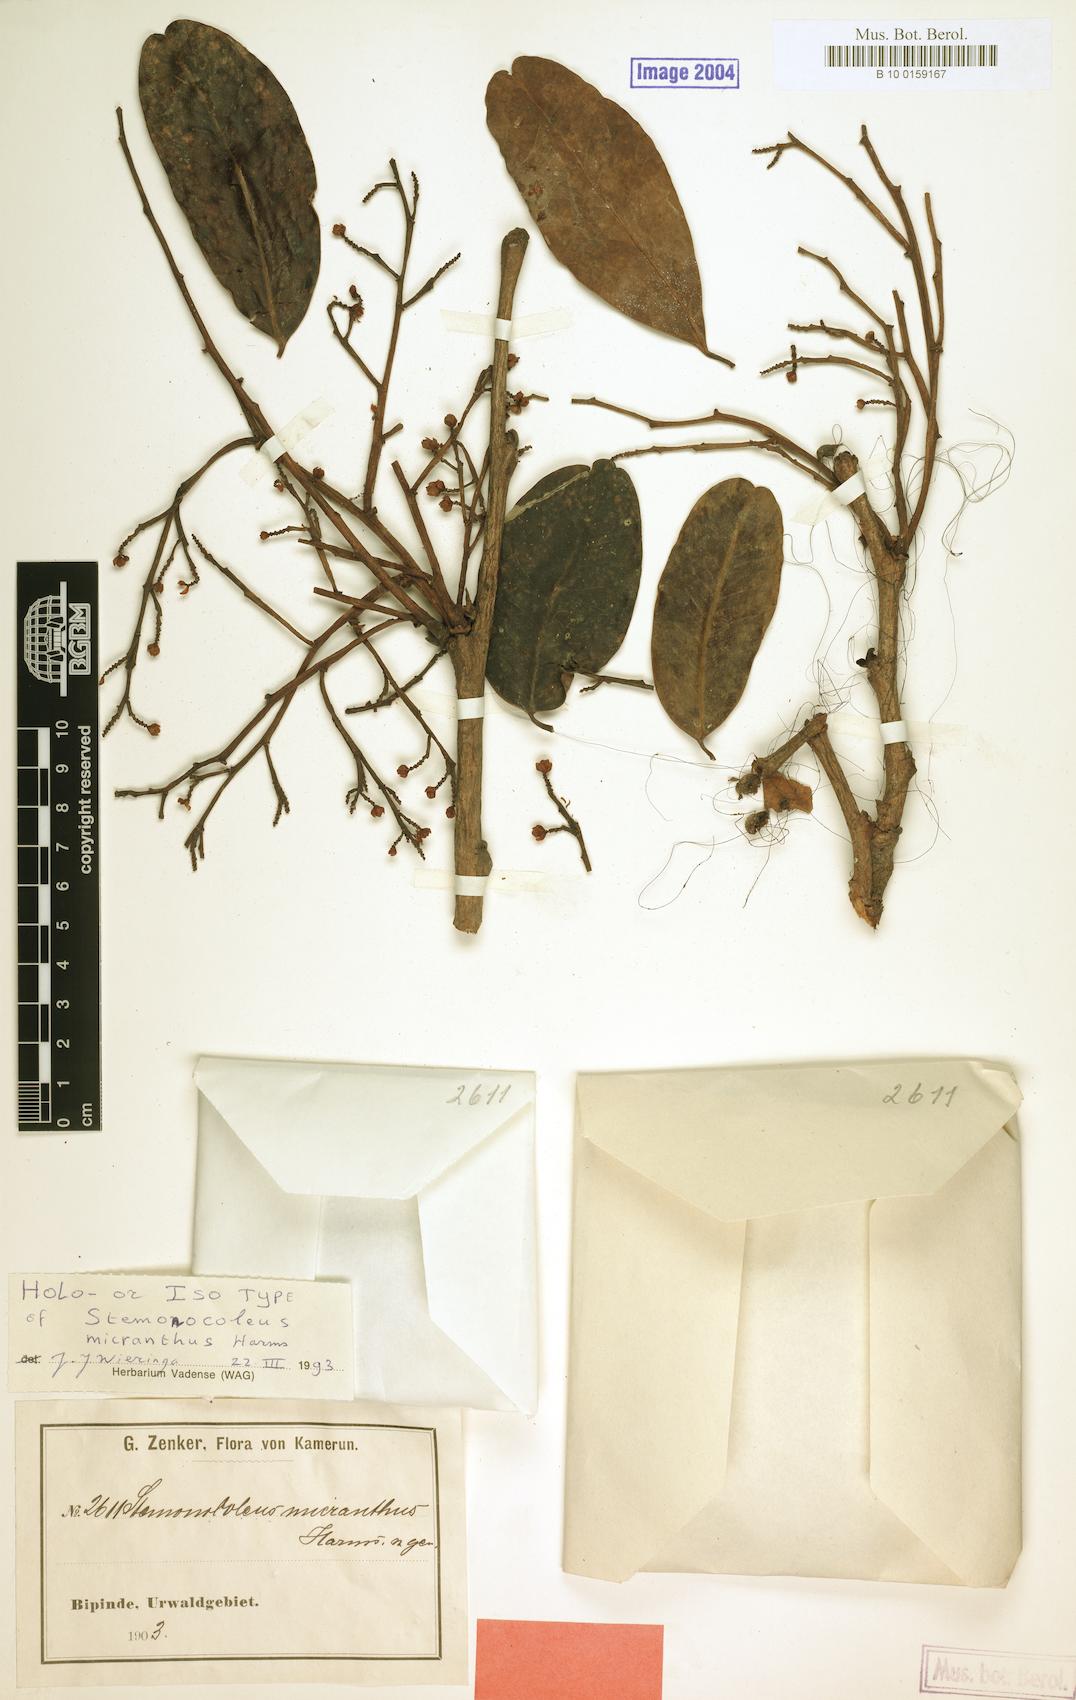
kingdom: Plantae
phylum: Tracheophyta
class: Magnoliopsida
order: Fabales
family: Fabaceae
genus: Stemonocoleus
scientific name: Stemonocoleus micranthus
